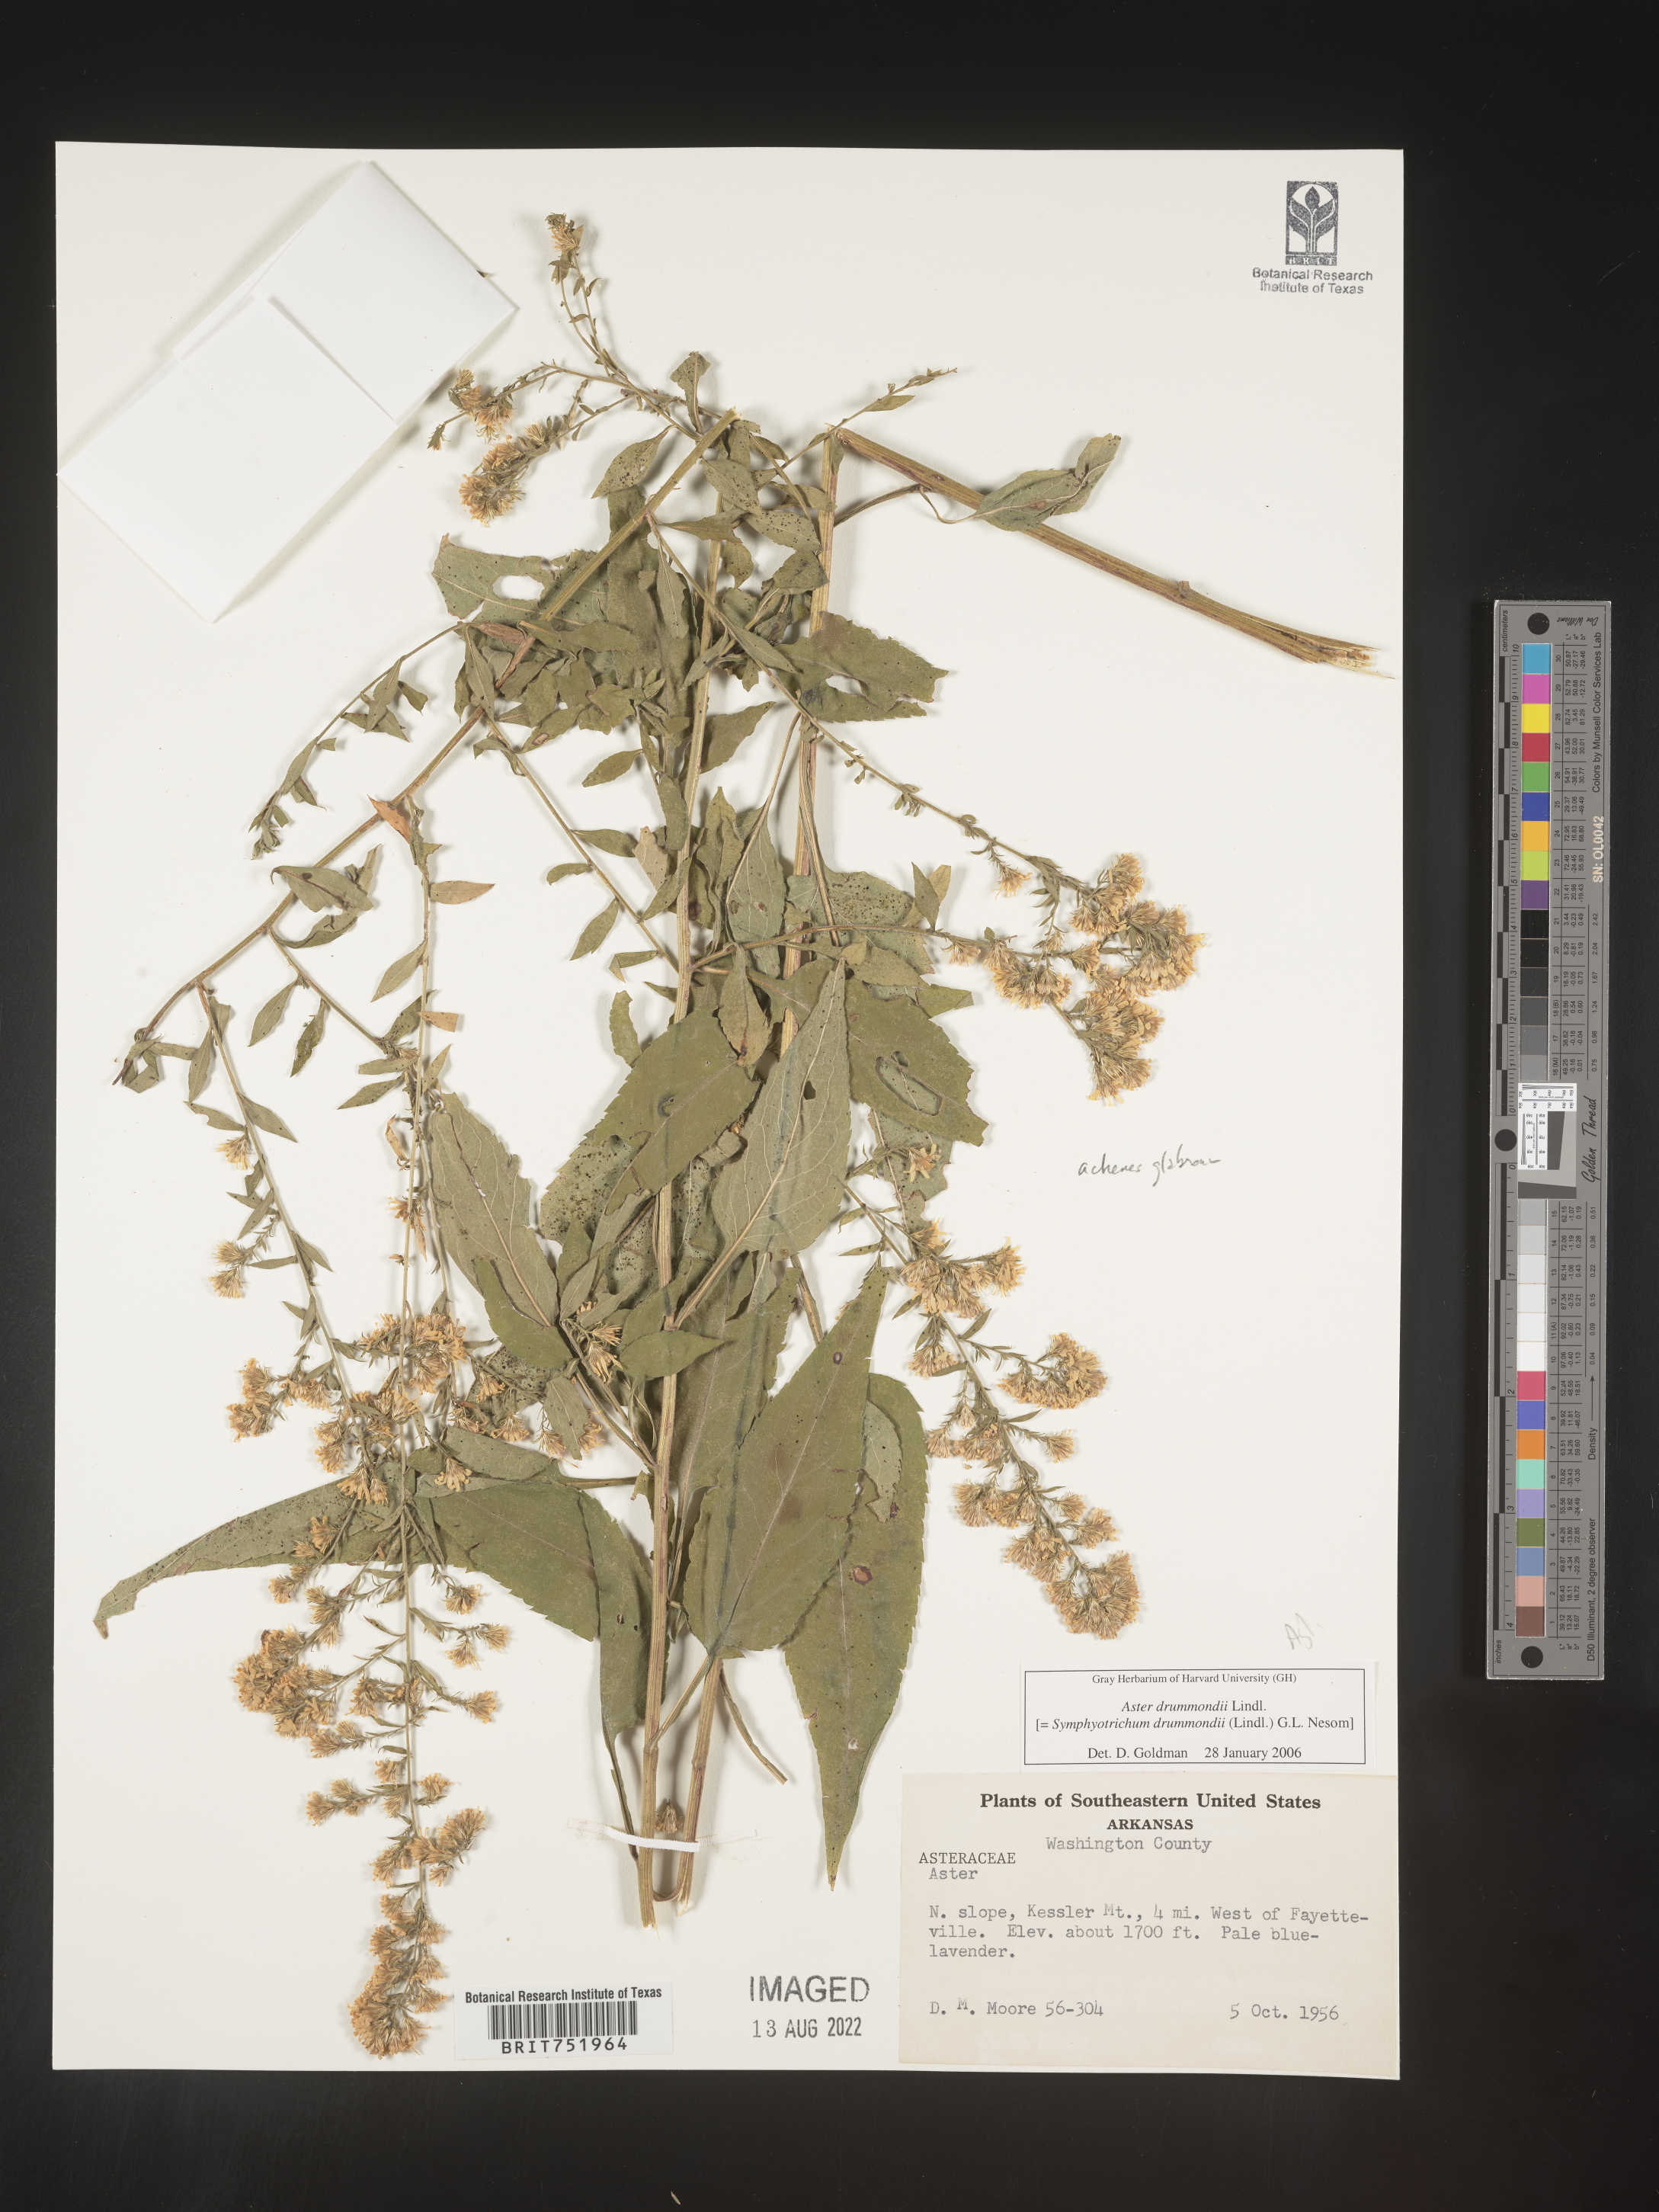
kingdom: Plantae
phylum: Tracheophyta
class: Magnoliopsida
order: Asterales
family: Asteraceae
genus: Symphyotrichum
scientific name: Symphyotrichum drummondii
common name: Drummond's aster
